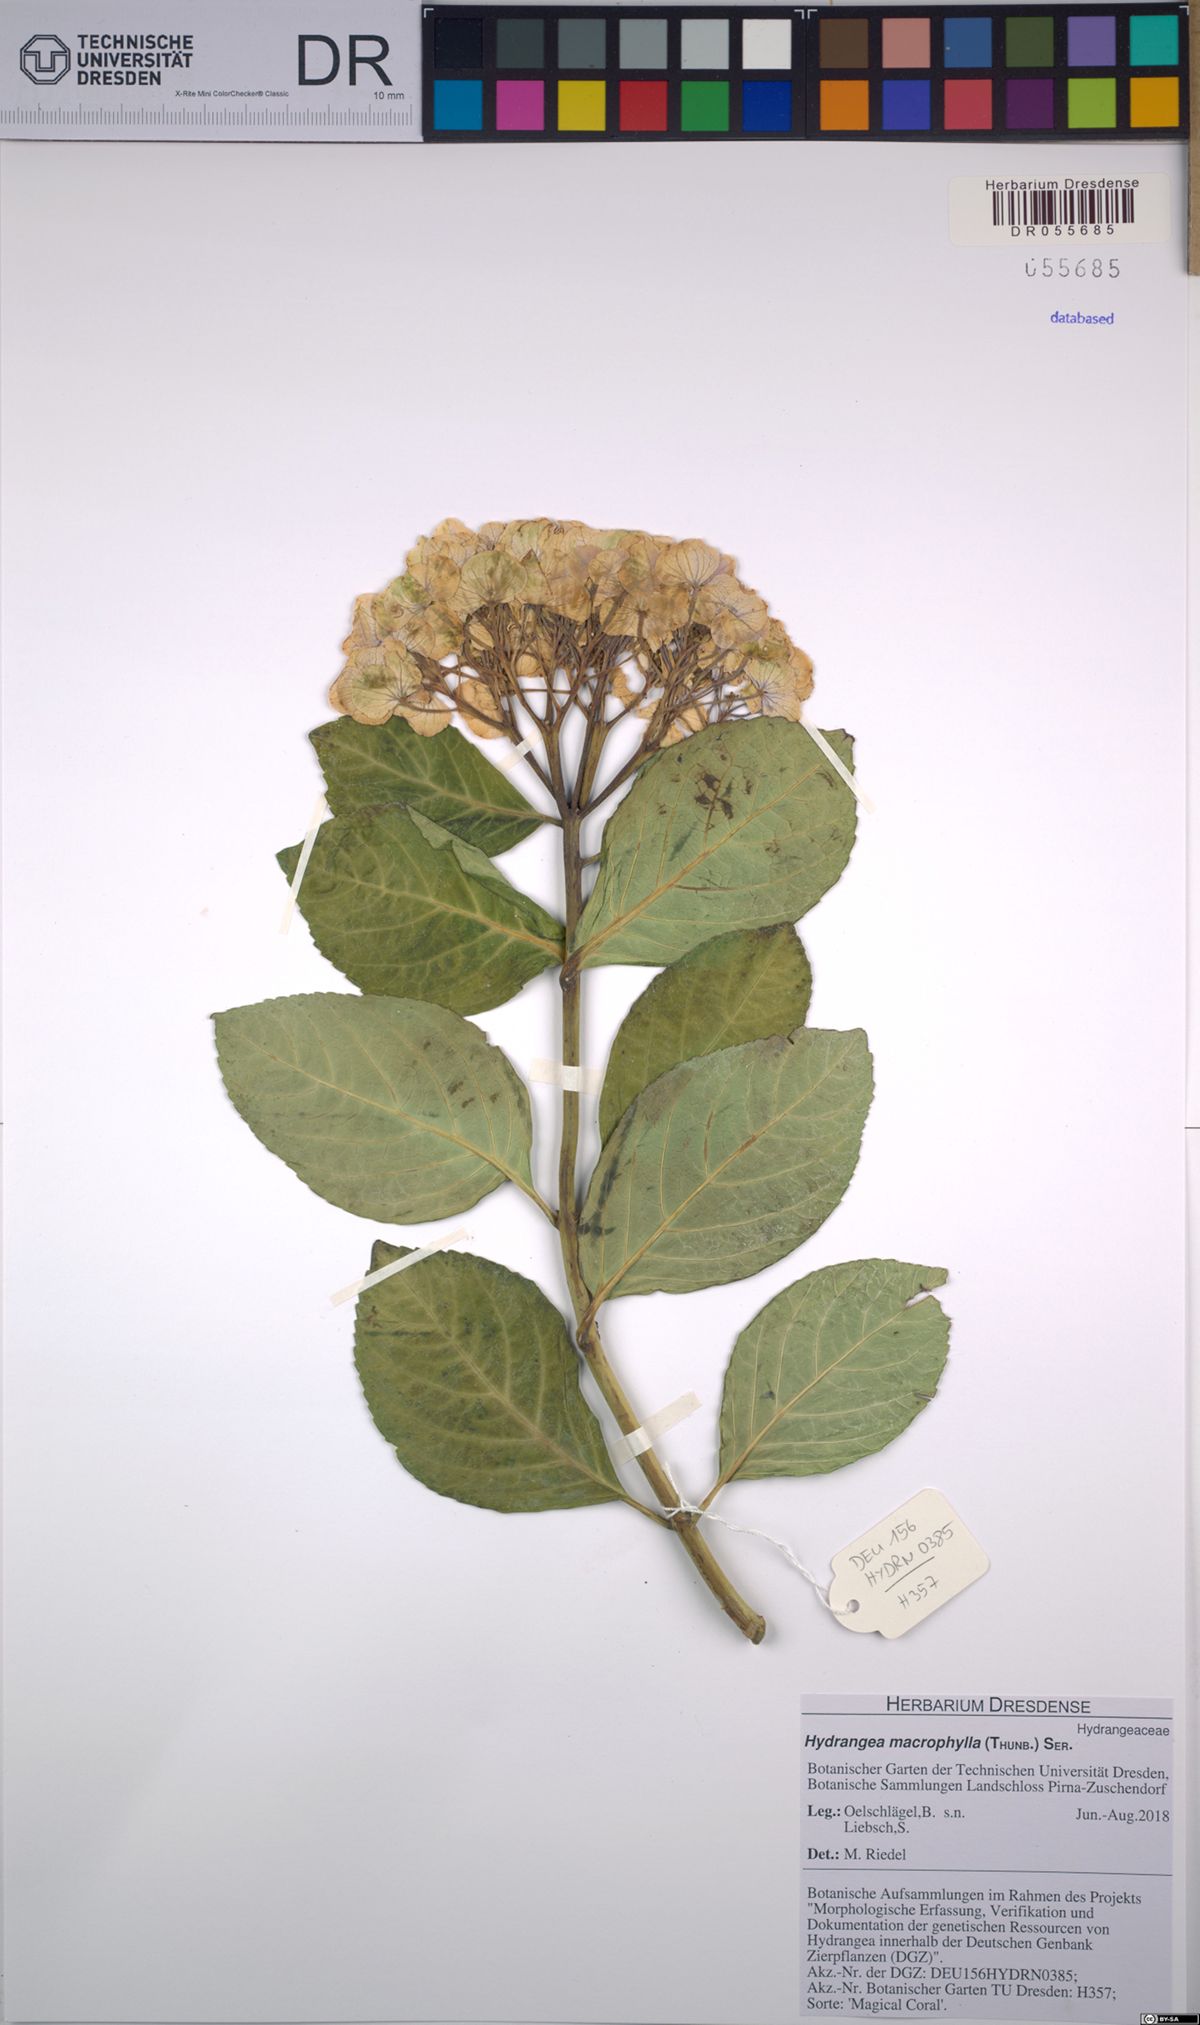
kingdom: Plantae
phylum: Tracheophyta
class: Magnoliopsida
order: Cornales
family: Hydrangeaceae
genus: Hydrangea
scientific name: Hydrangea macrophylla
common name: Hydrangea
